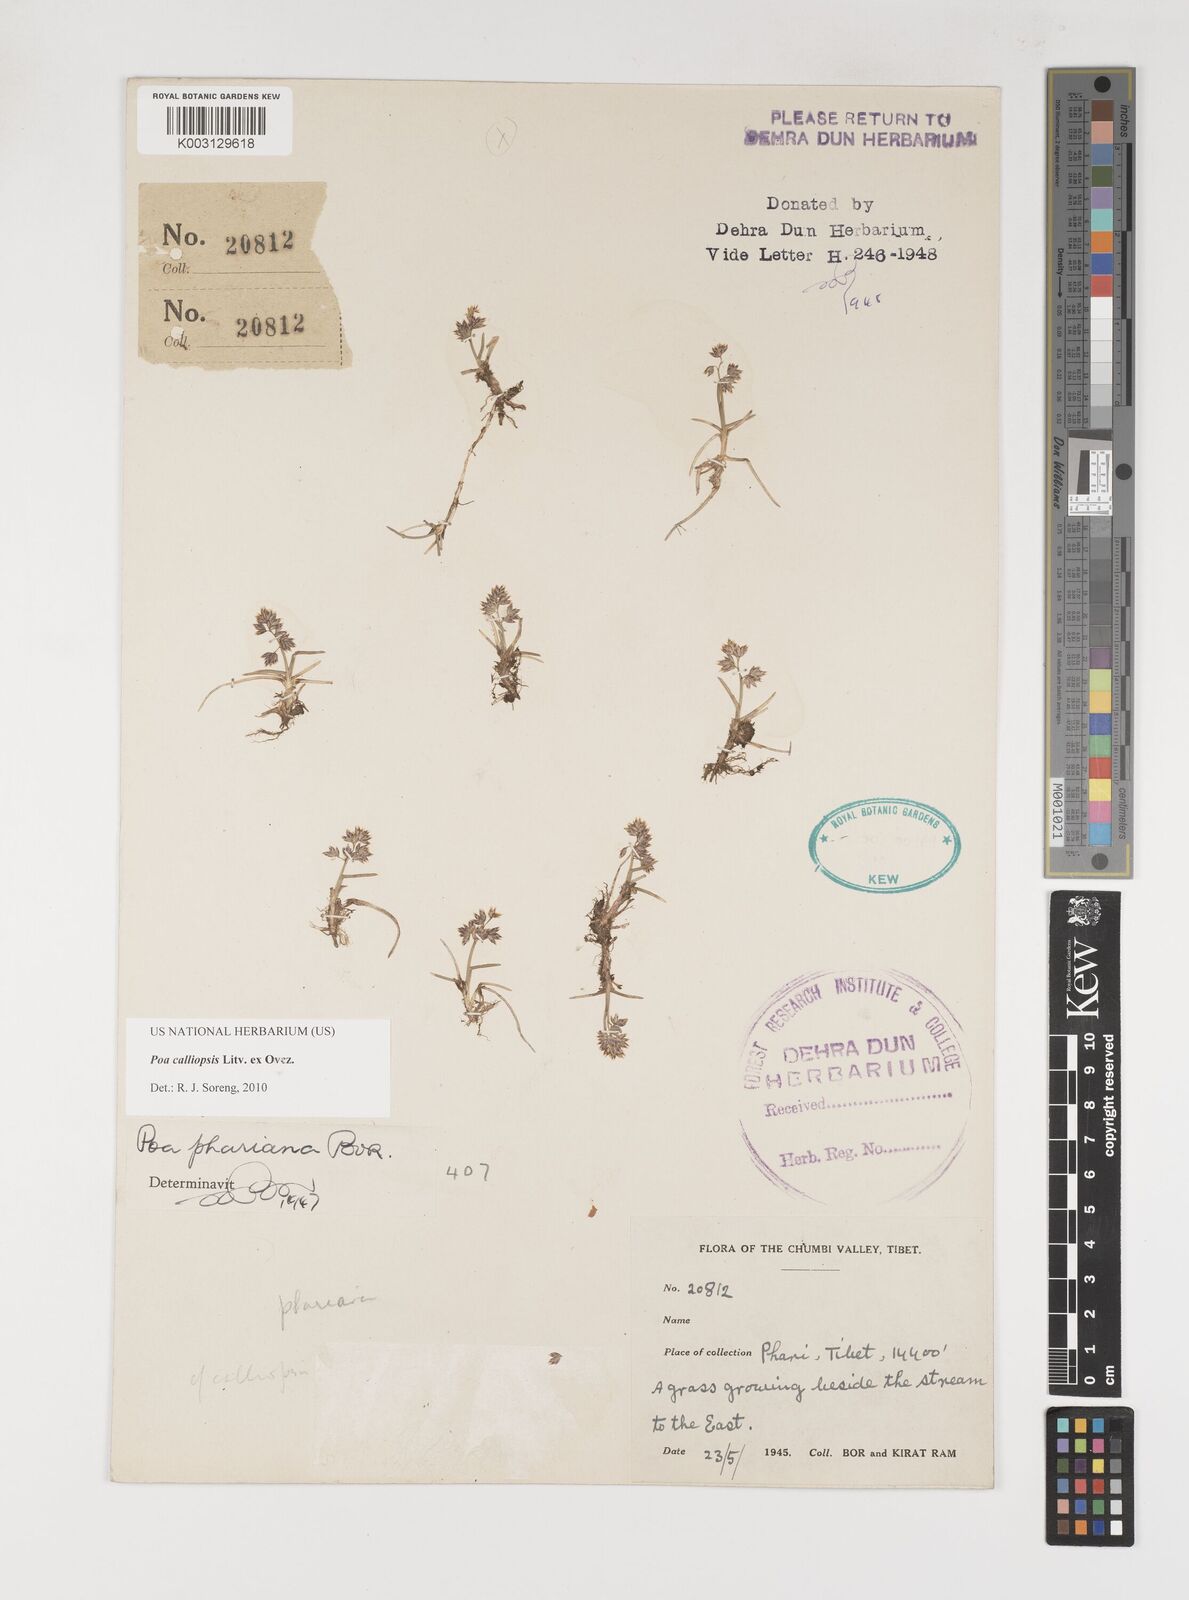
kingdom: Plantae
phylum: Tracheophyta
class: Liliopsida
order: Poales
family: Poaceae
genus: Poa
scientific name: Poa calliopsis
